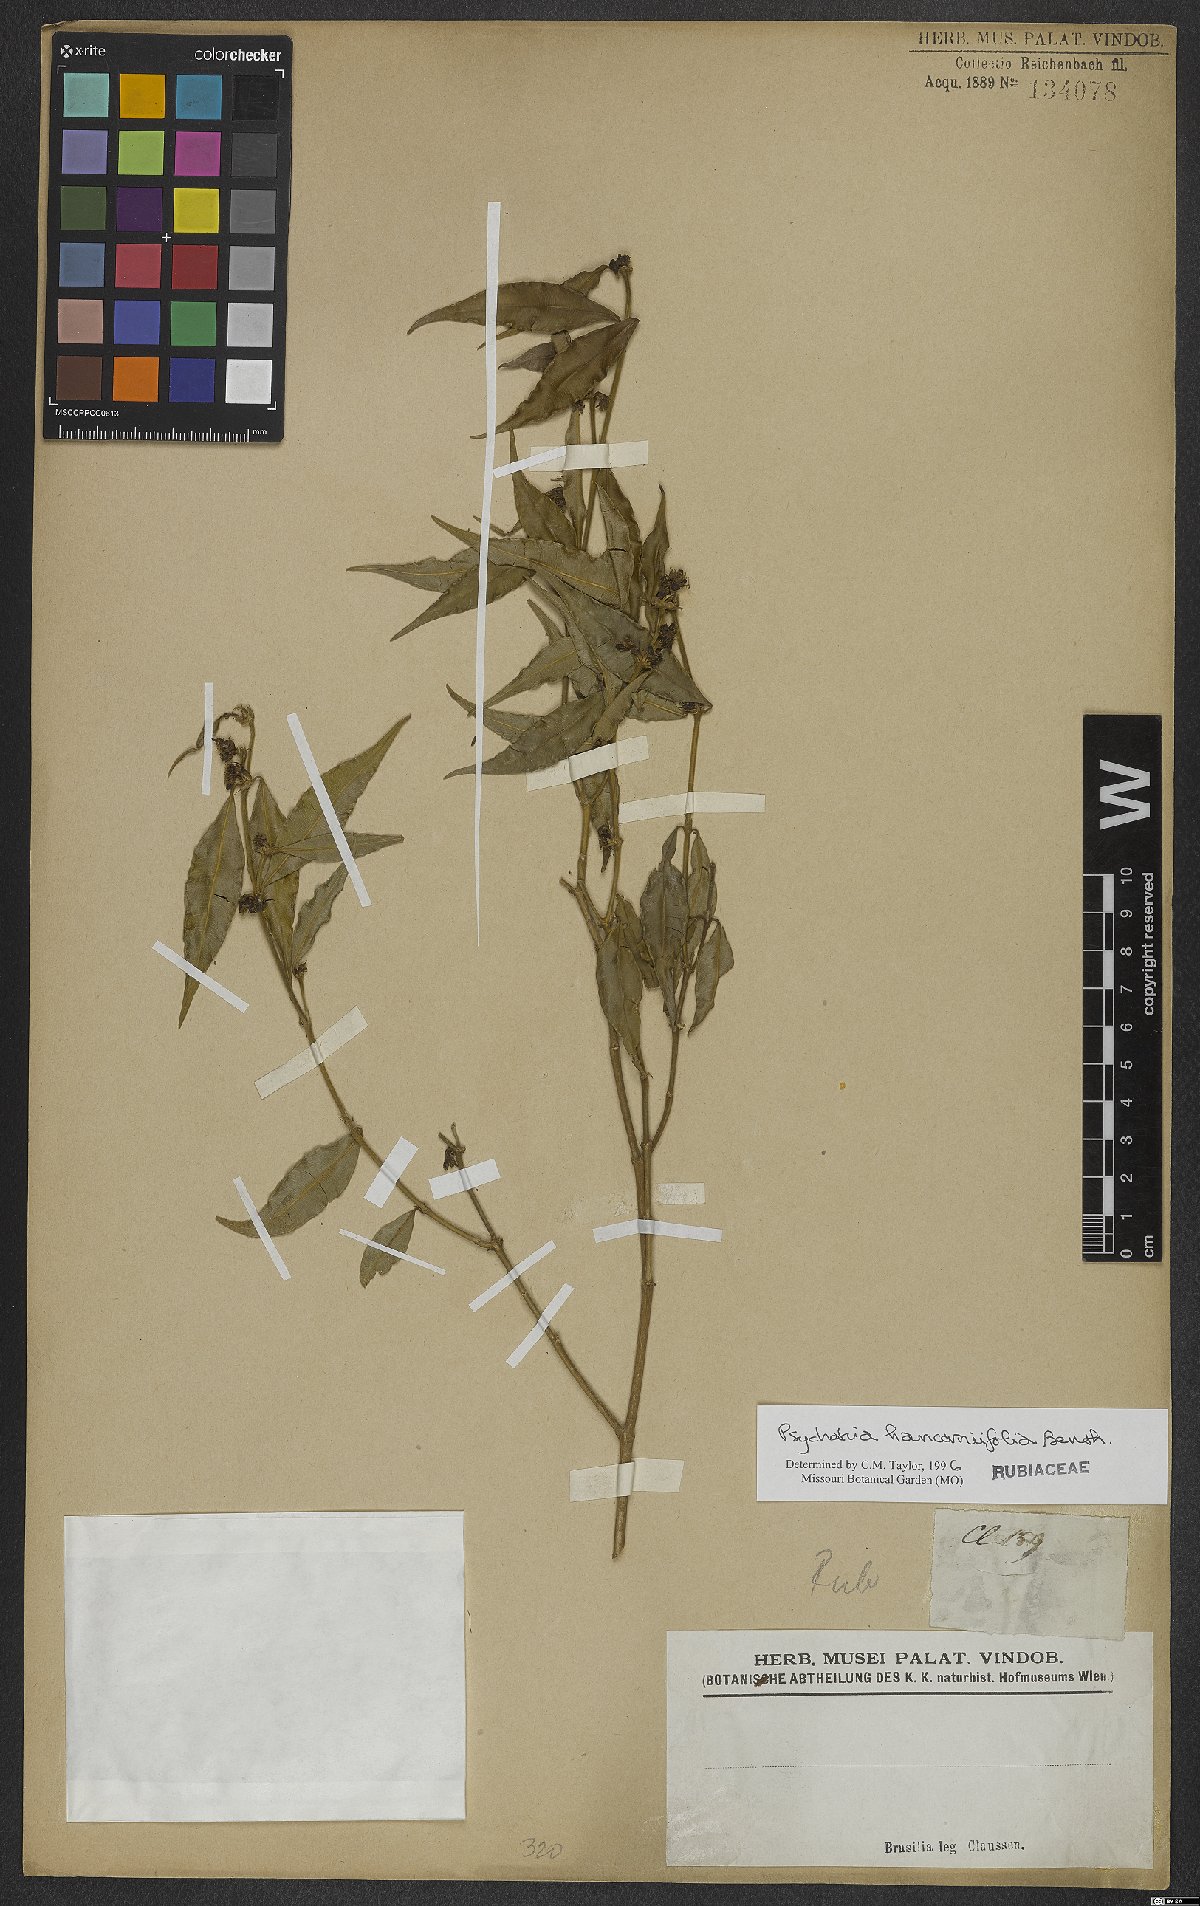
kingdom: Plantae
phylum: Tracheophyta
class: Magnoliopsida
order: Gentianales
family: Rubiaceae
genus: Palicourea
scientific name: Palicourea sessilis
